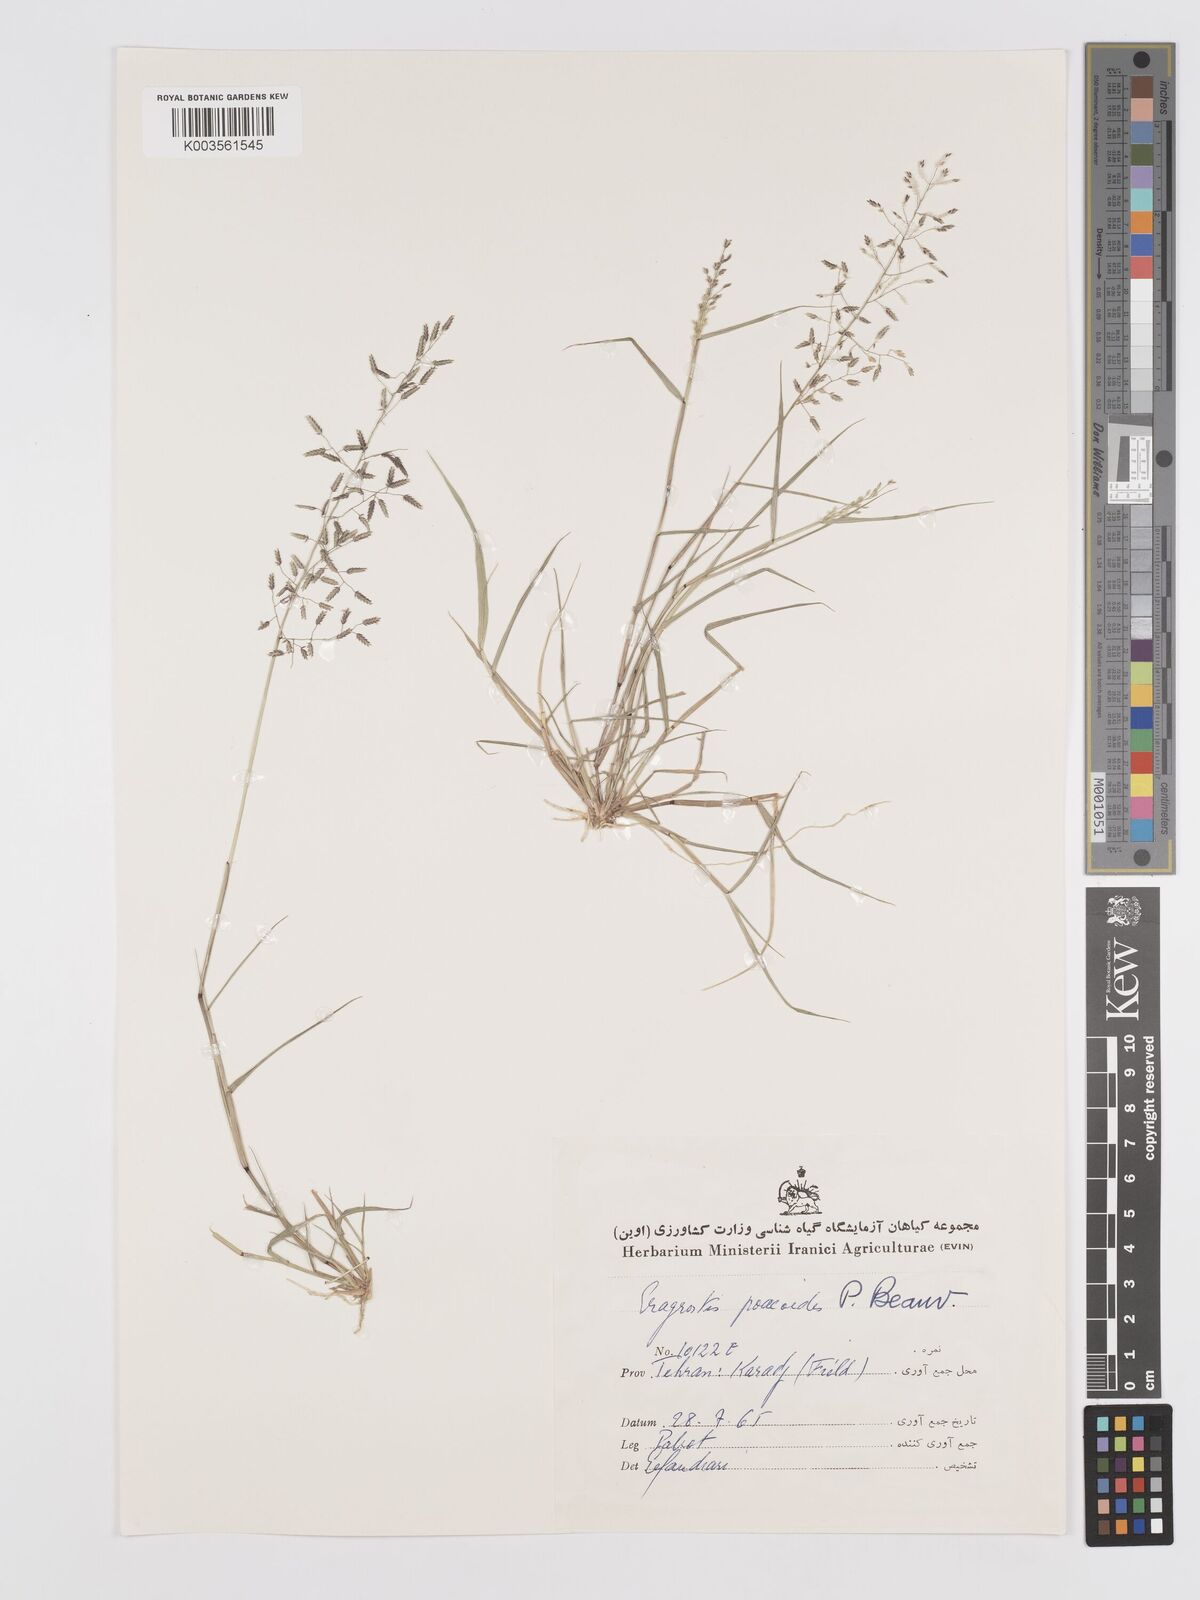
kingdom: Plantae
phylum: Tracheophyta
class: Liliopsida
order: Poales
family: Poaceae
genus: Eragrostis
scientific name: Eragrostis minor
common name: Small love-grass
